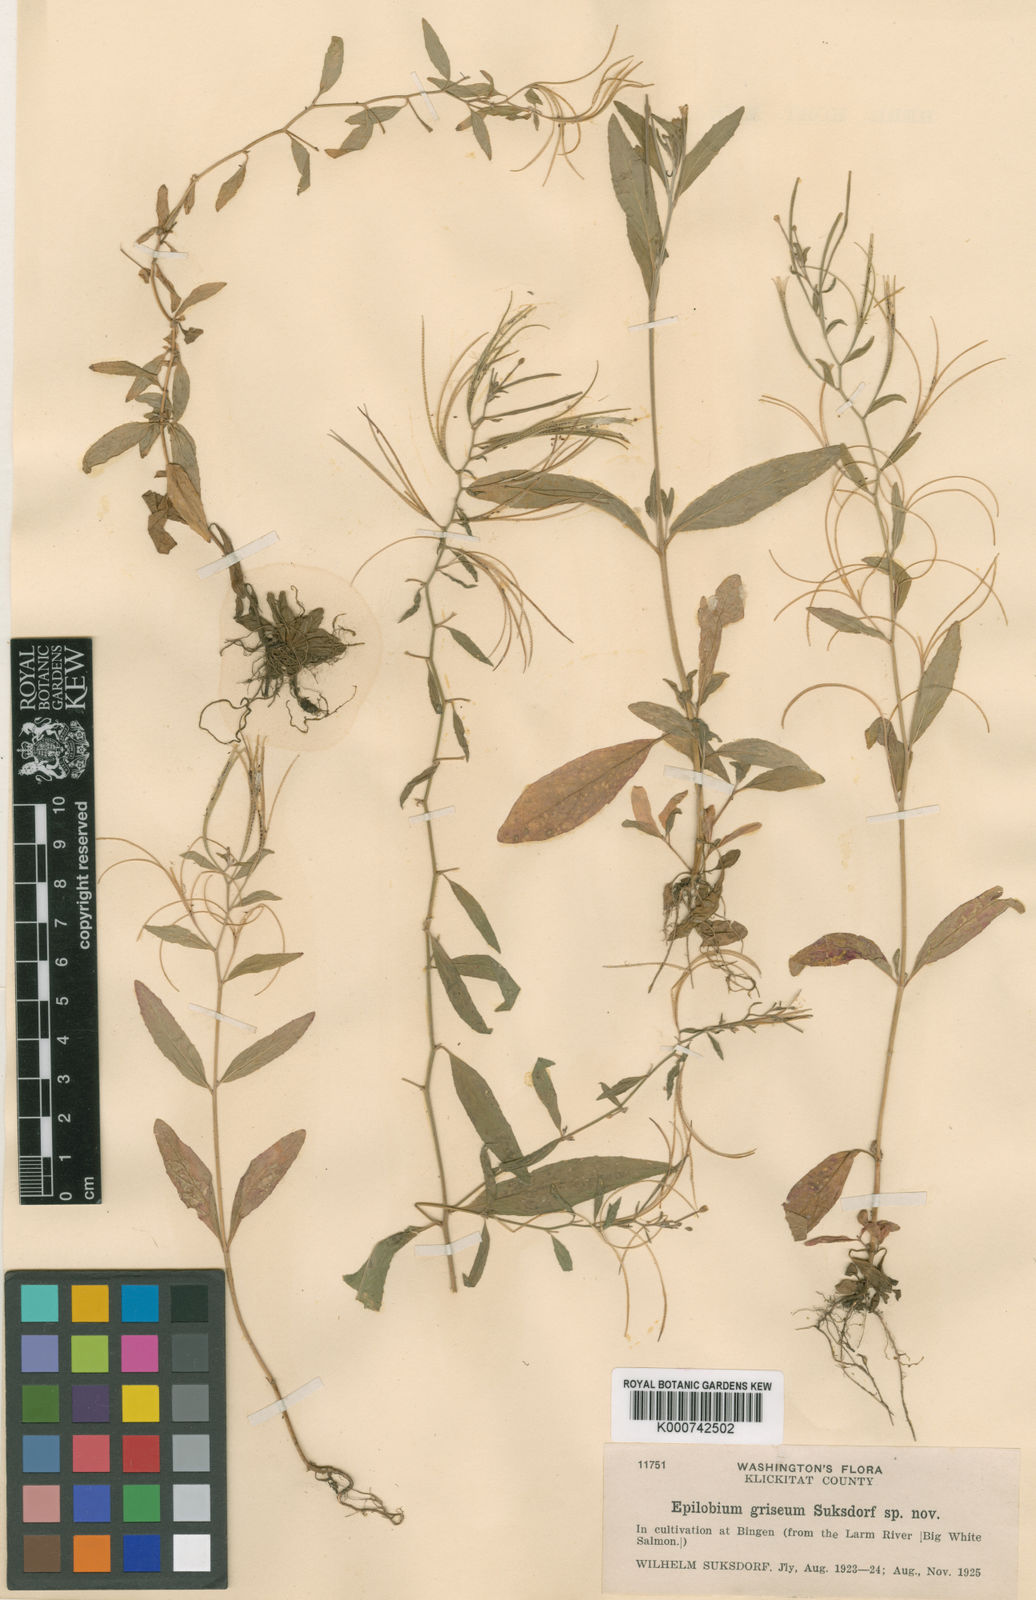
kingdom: Plantae
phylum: Tracheophyta
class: Magnoliopsida
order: Myrtales
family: Onagraceae
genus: Epilobium
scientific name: Epilobium ciliatum
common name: American willowherb
